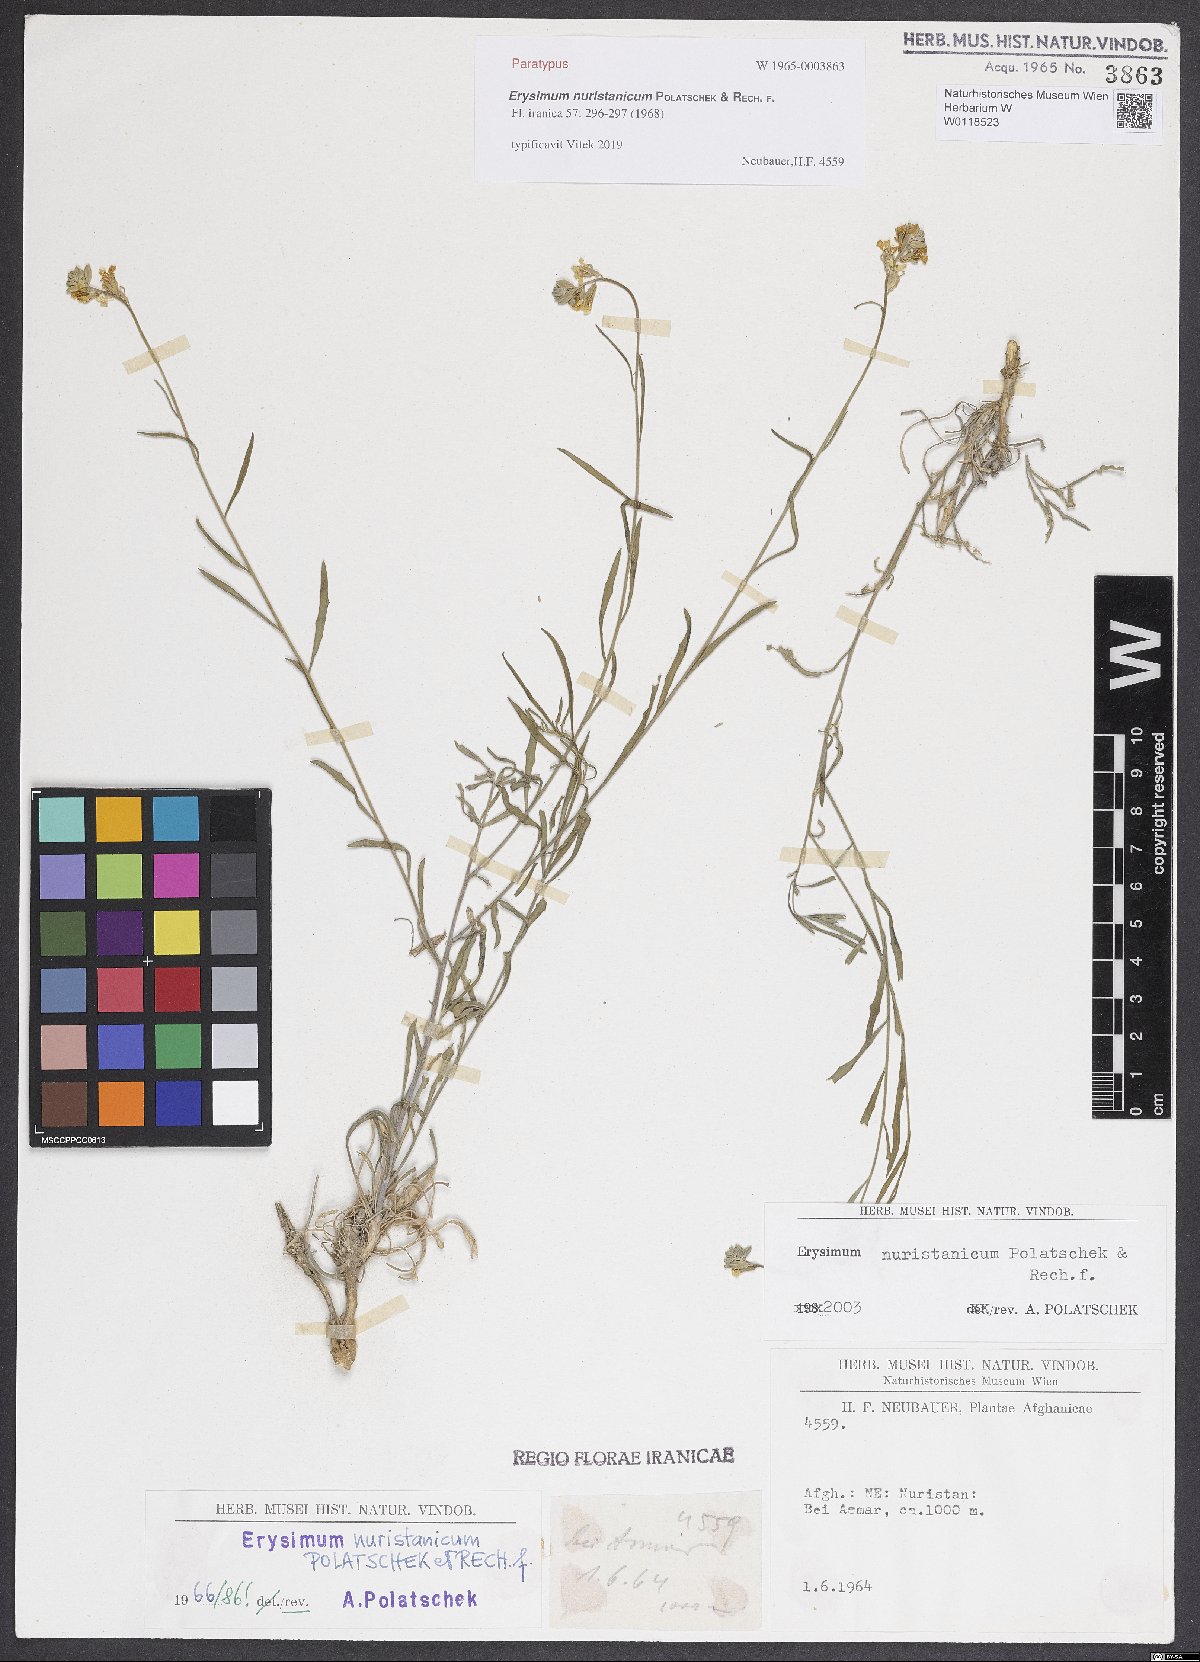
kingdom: Plantae
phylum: Tracheophyta
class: Magnoliopsida
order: Brassicales
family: Brassicaceae
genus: Erysimum
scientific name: Erysimum nuristanicum
